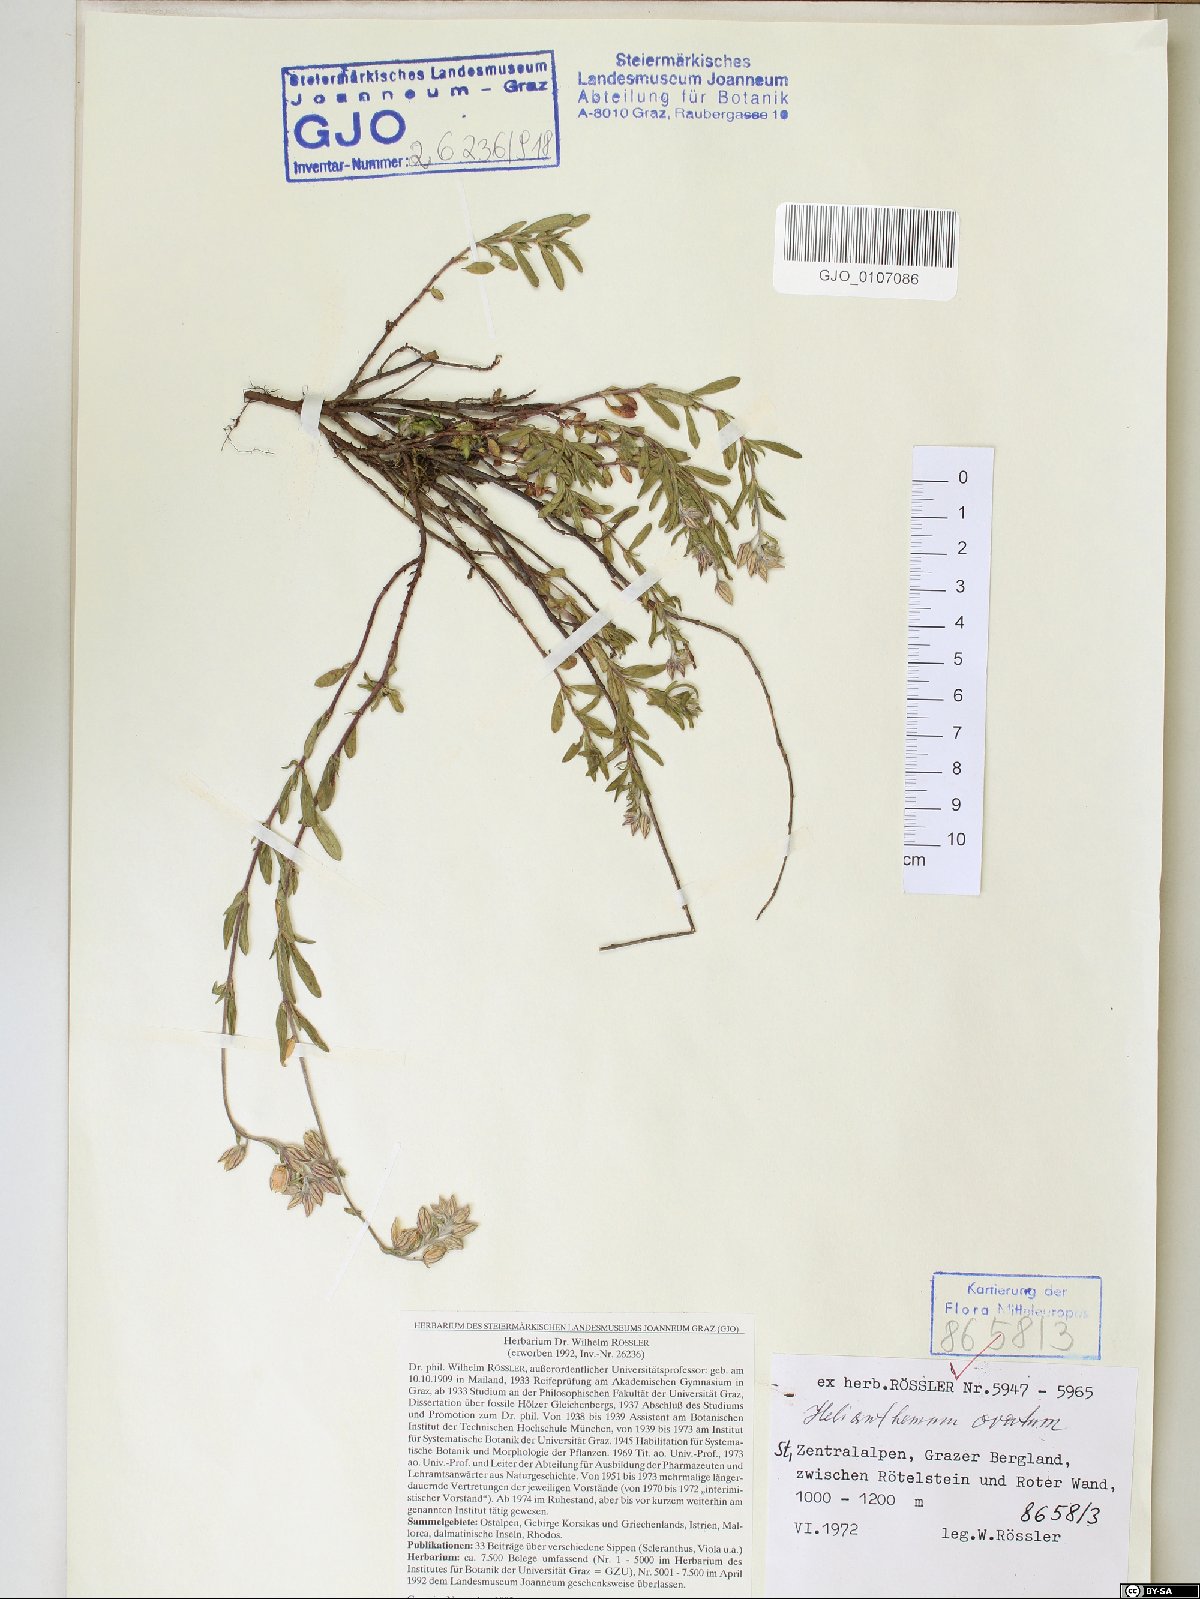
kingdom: Plantae
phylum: Tracheophyta
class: Magnoliopsida
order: Malvales
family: Cistaceae
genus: Helianthemum
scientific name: Helianthemum nummularium
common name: Common rock-rose
